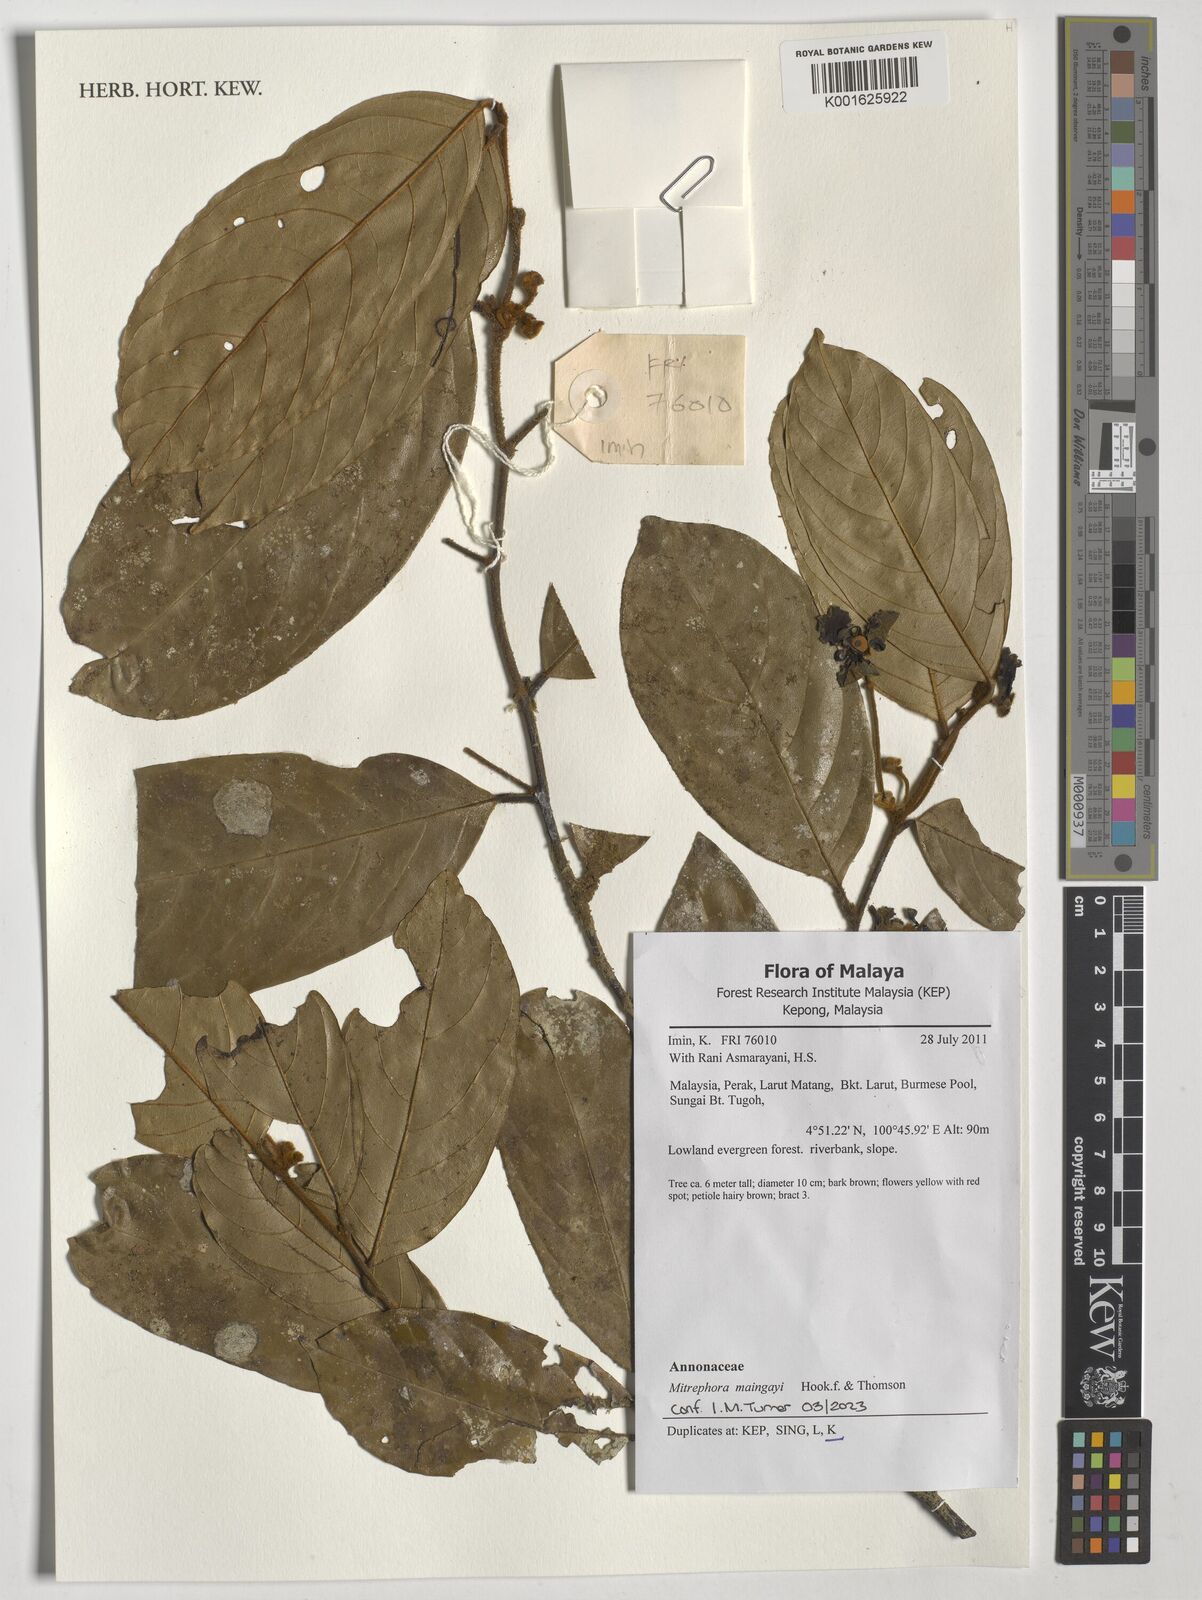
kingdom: Plantae
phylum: Tracheophyta
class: Magnoliopsida
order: Magnoliales
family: Annonaceae
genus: Mitrephora
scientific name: Mitrephora teysmannii
